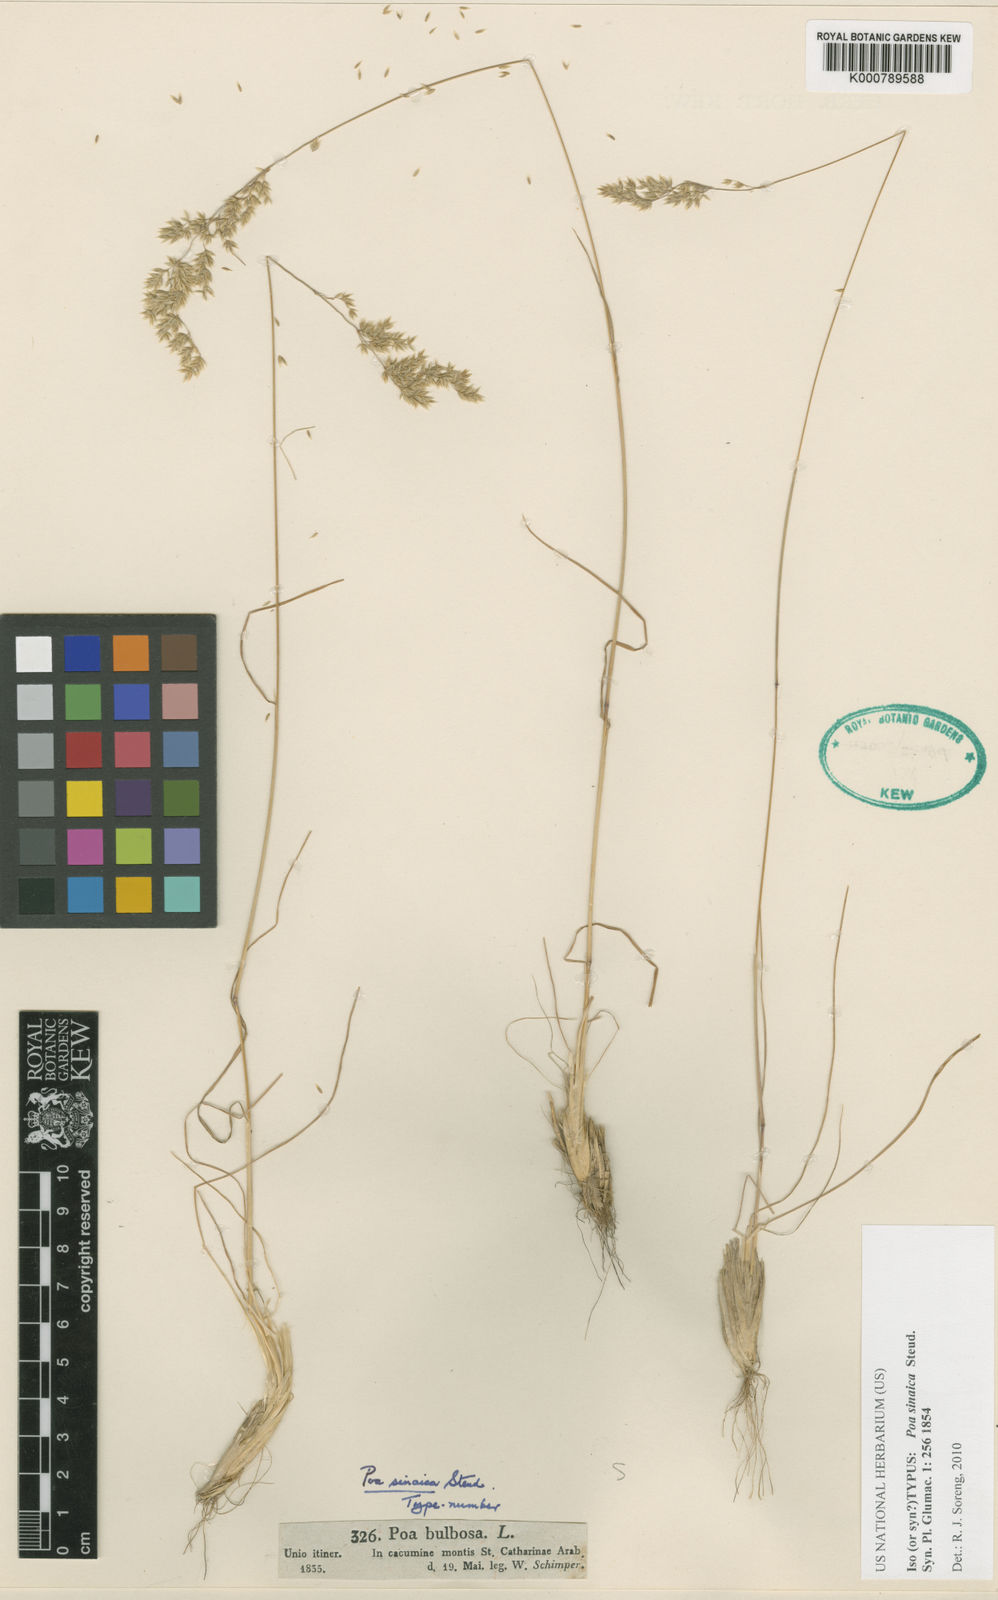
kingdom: Plantae
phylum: Tracheophyta
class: Liliopsida
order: Poales
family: Poaceae
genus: Poa
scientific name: Poa sinaica
